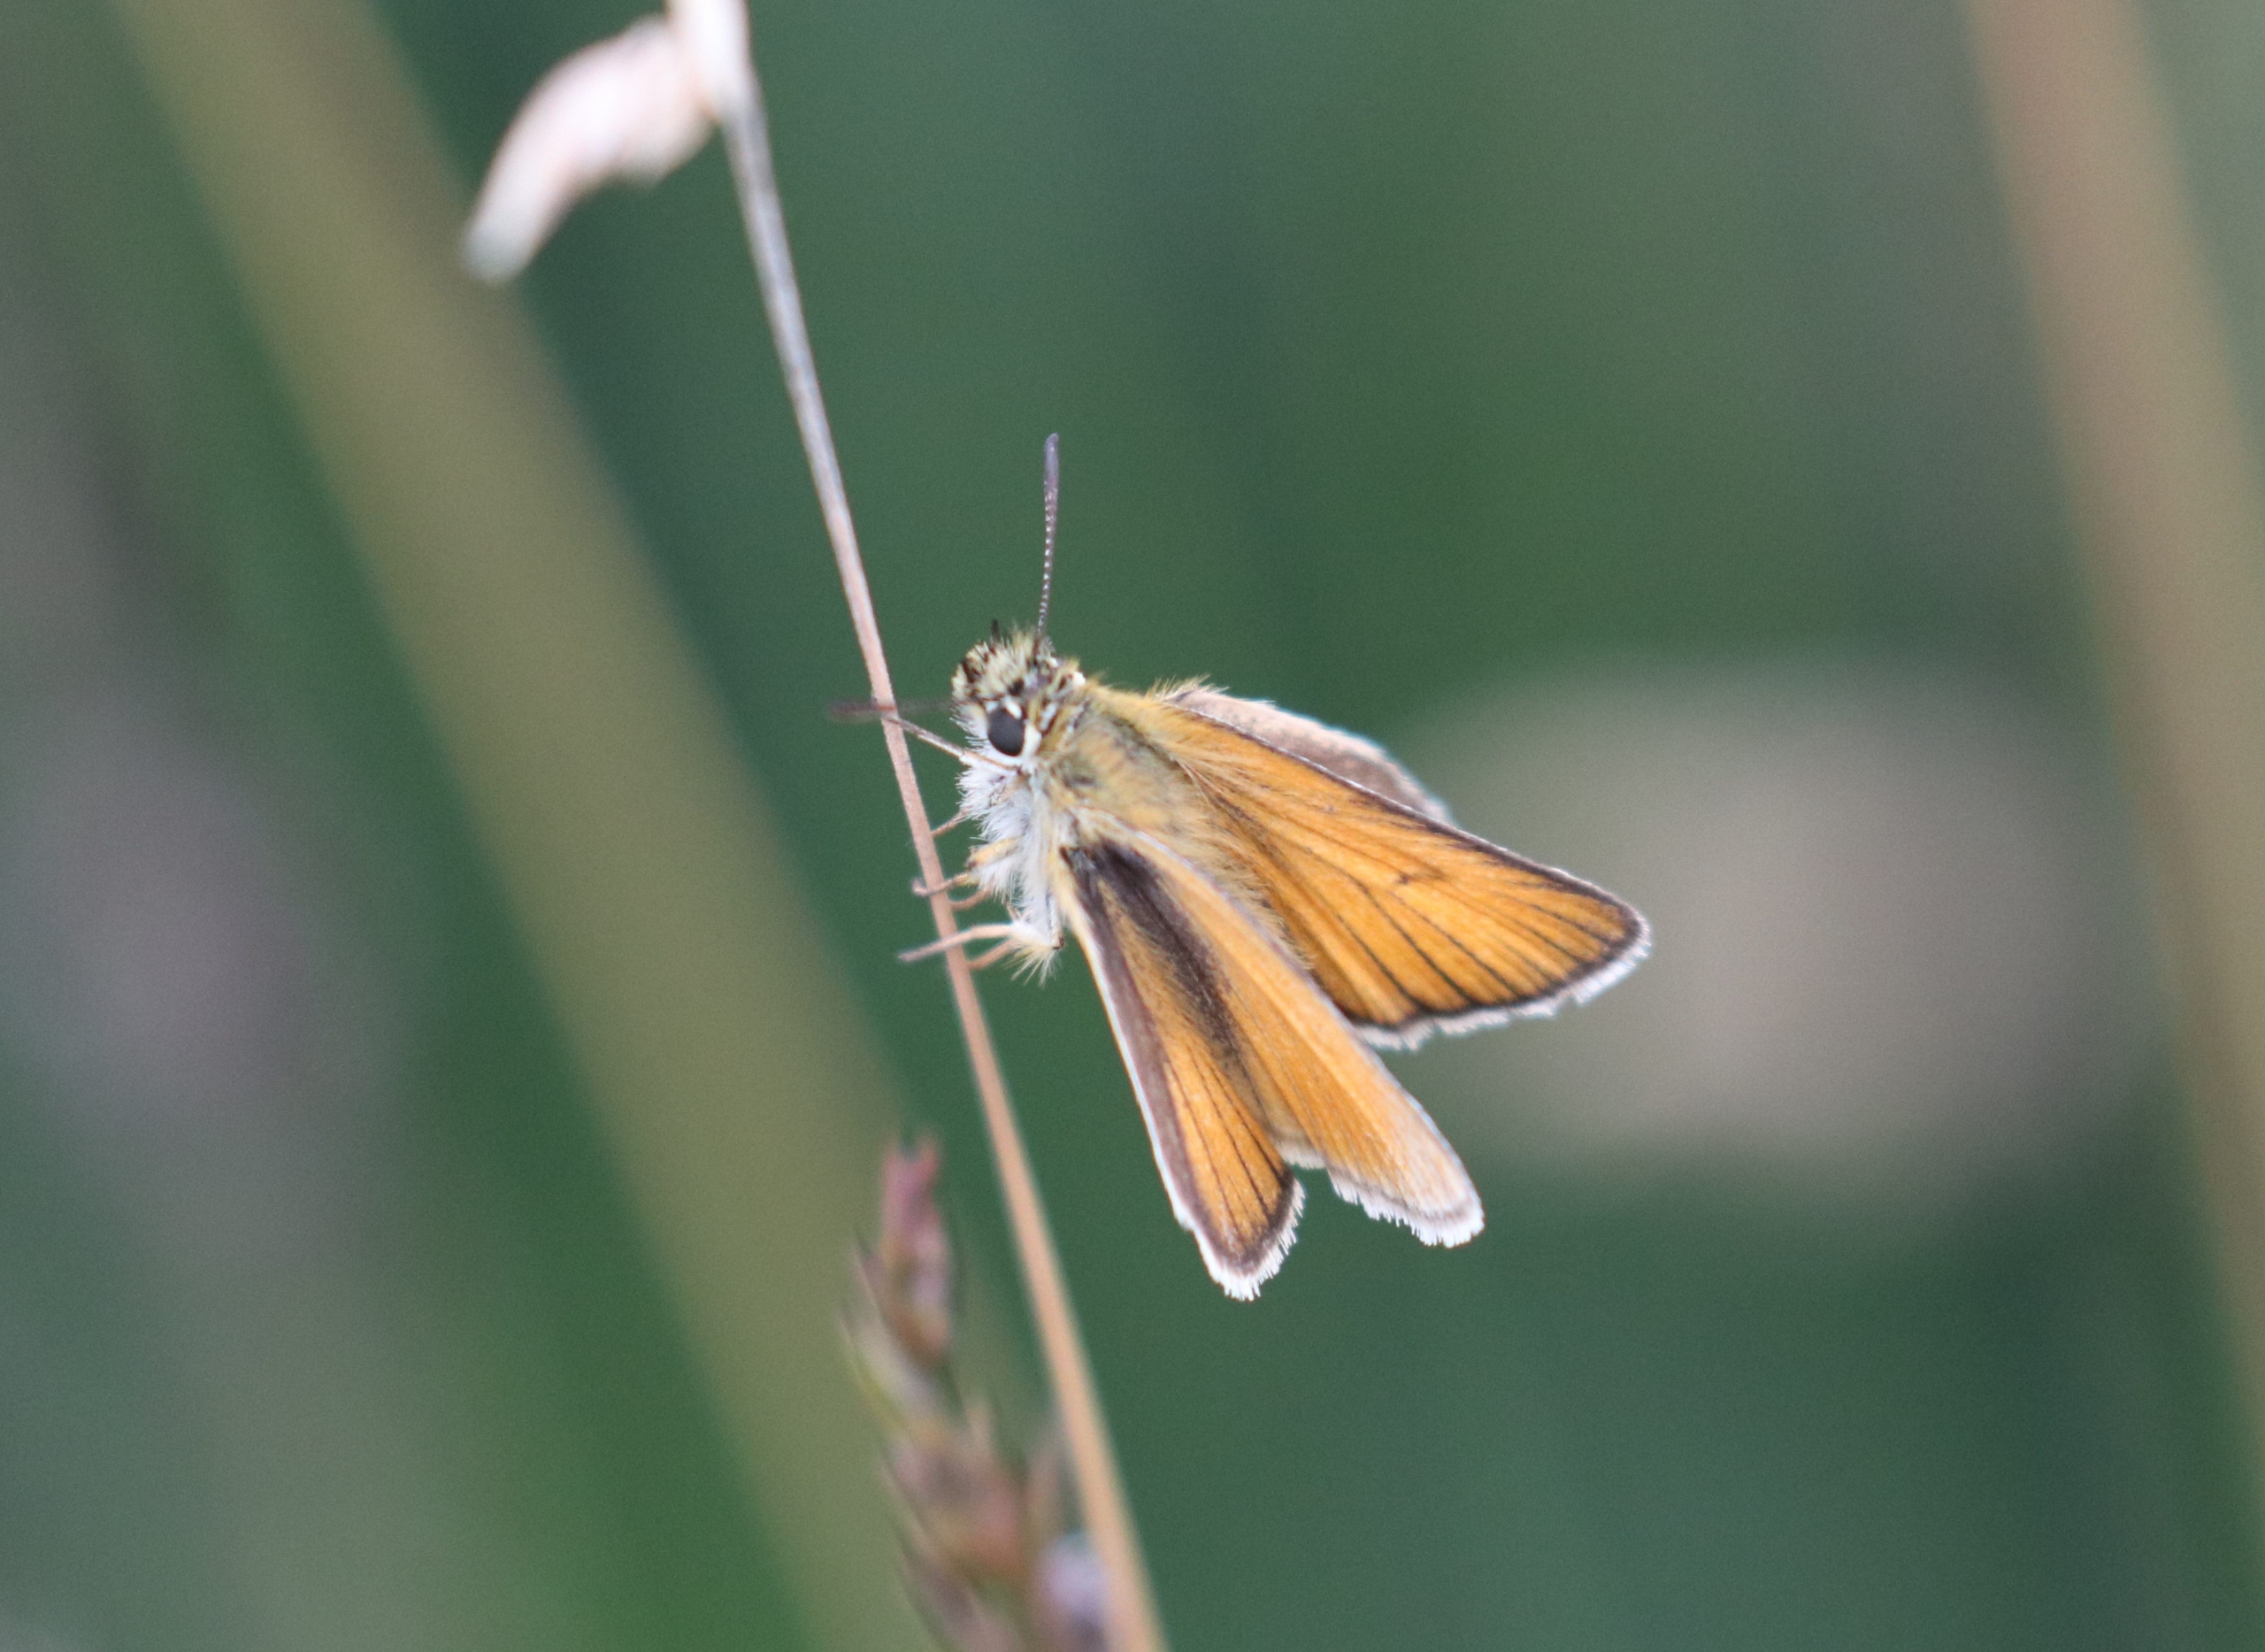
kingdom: Animalia
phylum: Arthropoda
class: Insecta
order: Lepidoptera
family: Hesperiidae
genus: Thymelicus
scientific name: Thymelicus lineola
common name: Stregbredpande
